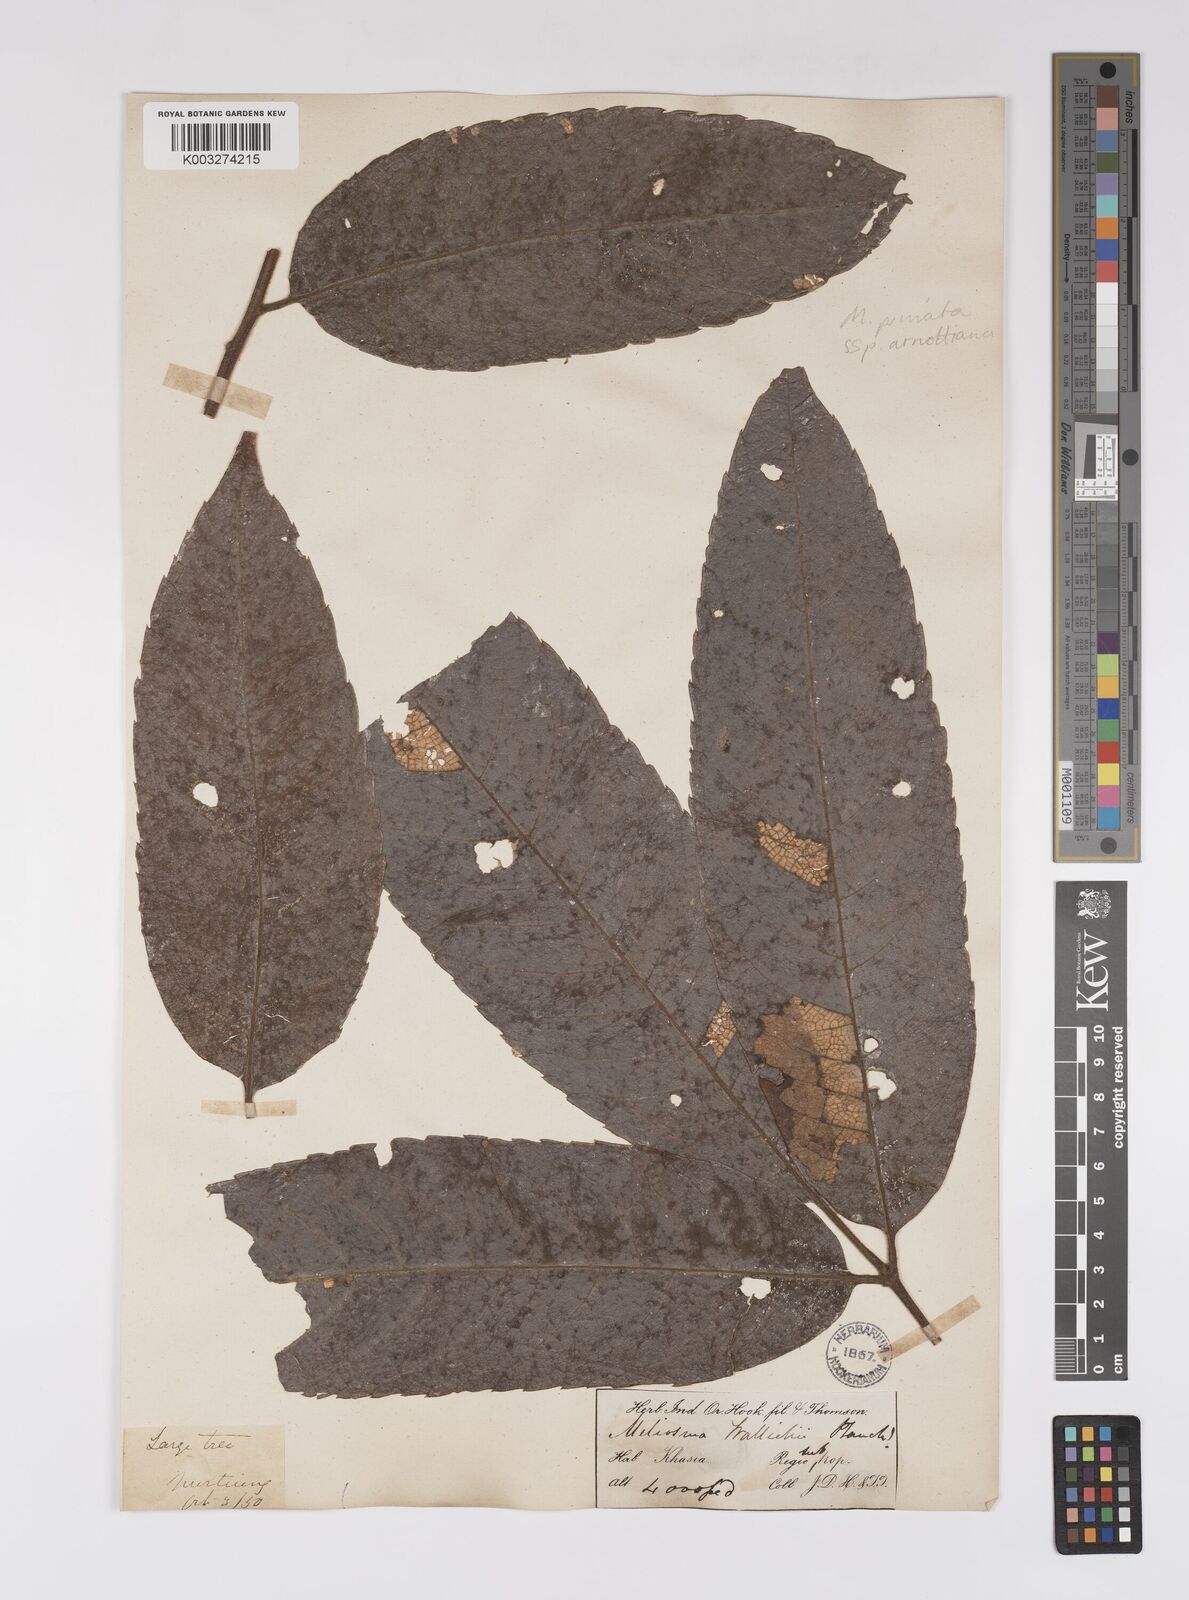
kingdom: Plantae
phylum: Tracheophyta
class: Magnoliopsida
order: Proteales
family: Sabiaceae
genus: Meliosma
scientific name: Meliosma rhoifolia
